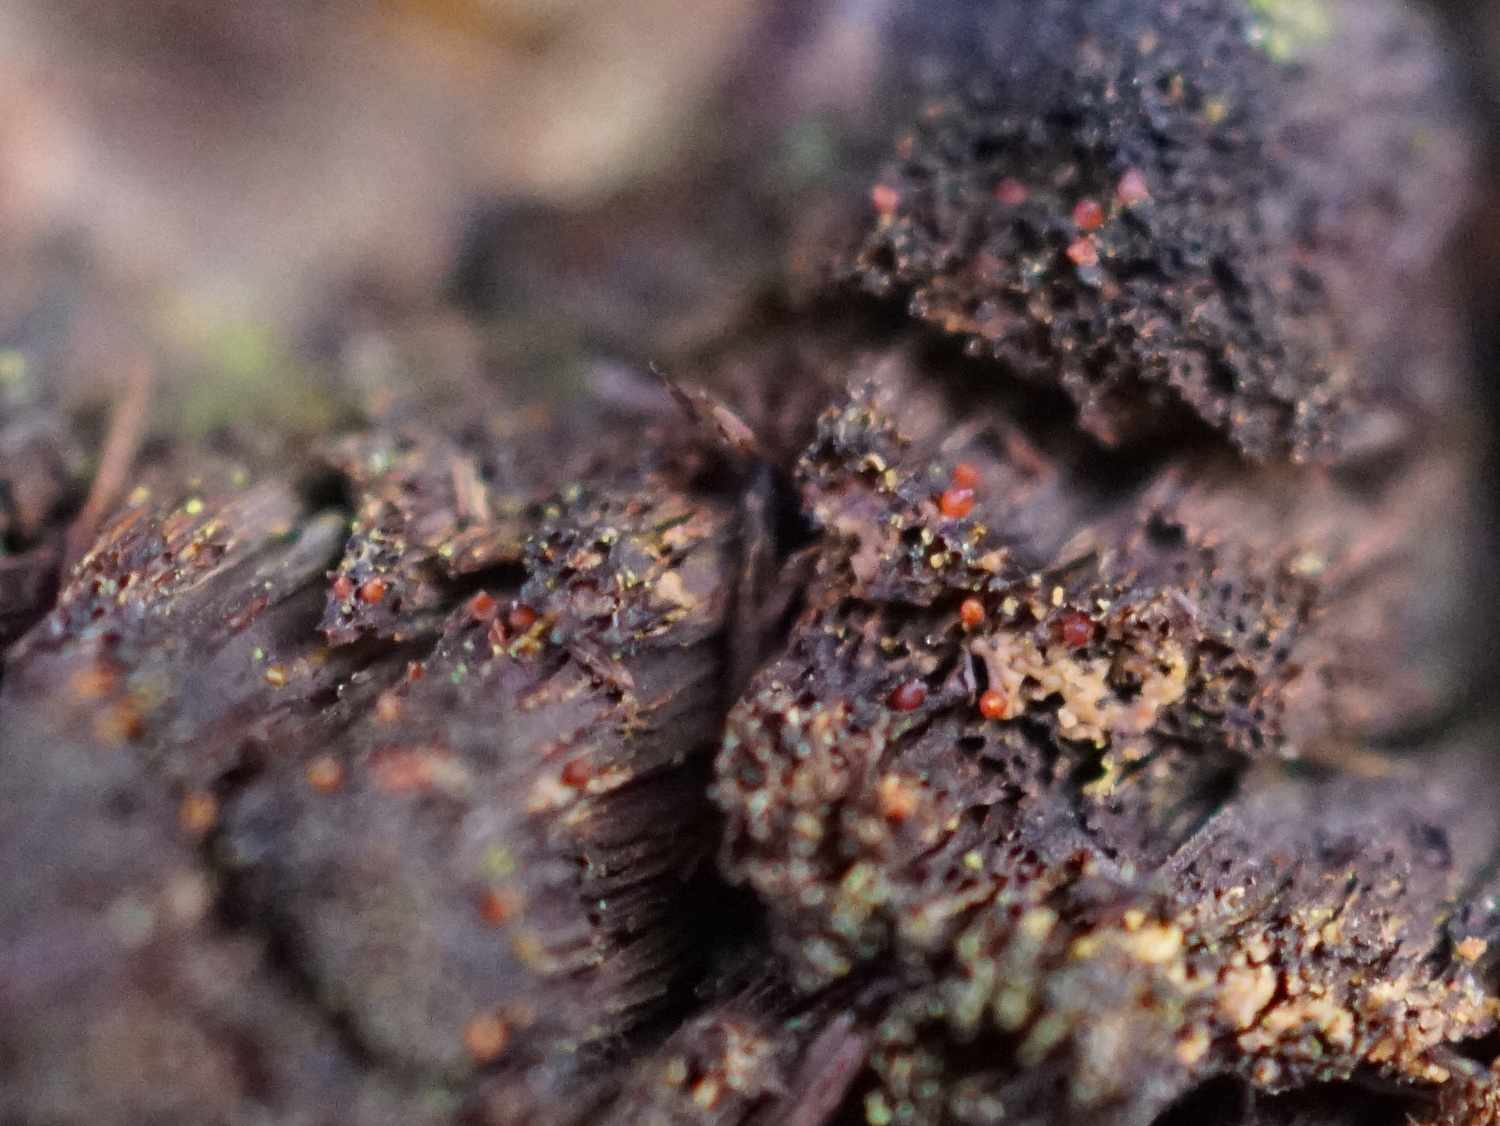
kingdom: Fungi
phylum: Ascomycota
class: Sordariomycetes
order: Hypocreales
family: Nectriaceae
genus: Cosmospora
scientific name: Cosmospora coccinea
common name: spejlpore-cinnobersvamp
